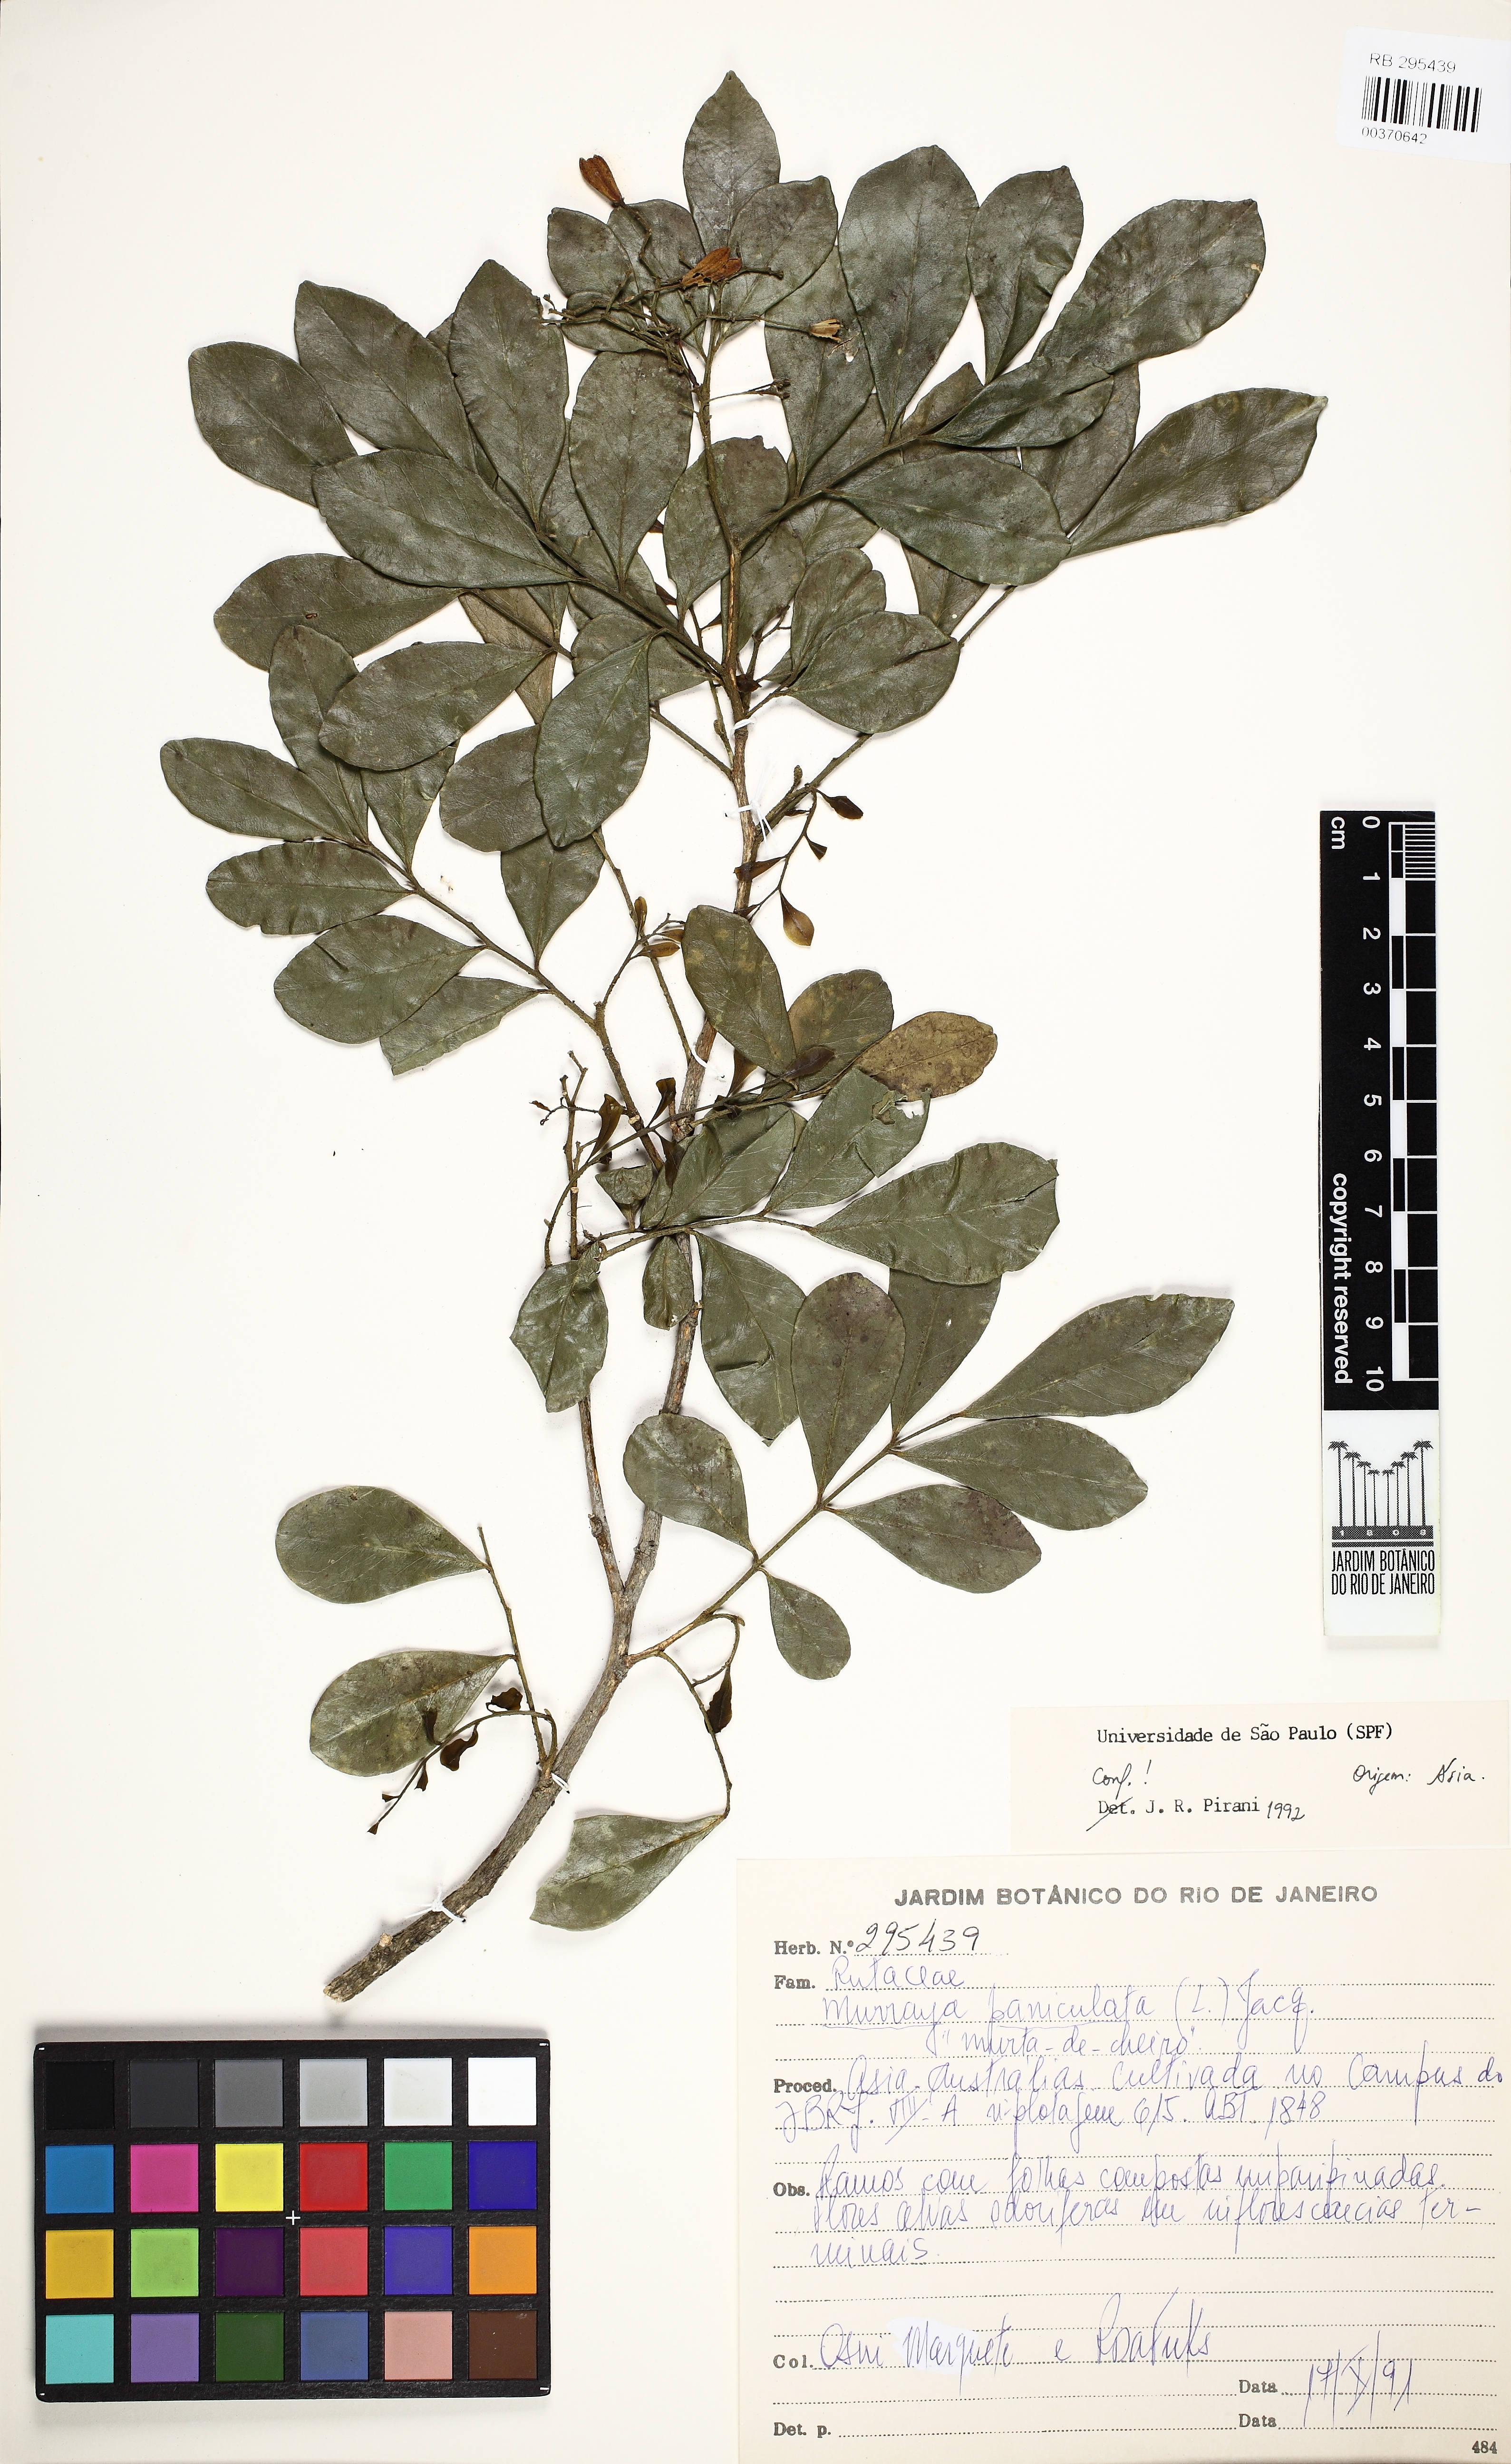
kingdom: Plantae
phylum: Tracheophyta
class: Magnoliopsida
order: Sapindales
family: Rutaceae
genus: Murraya
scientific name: Murraya paniculata
